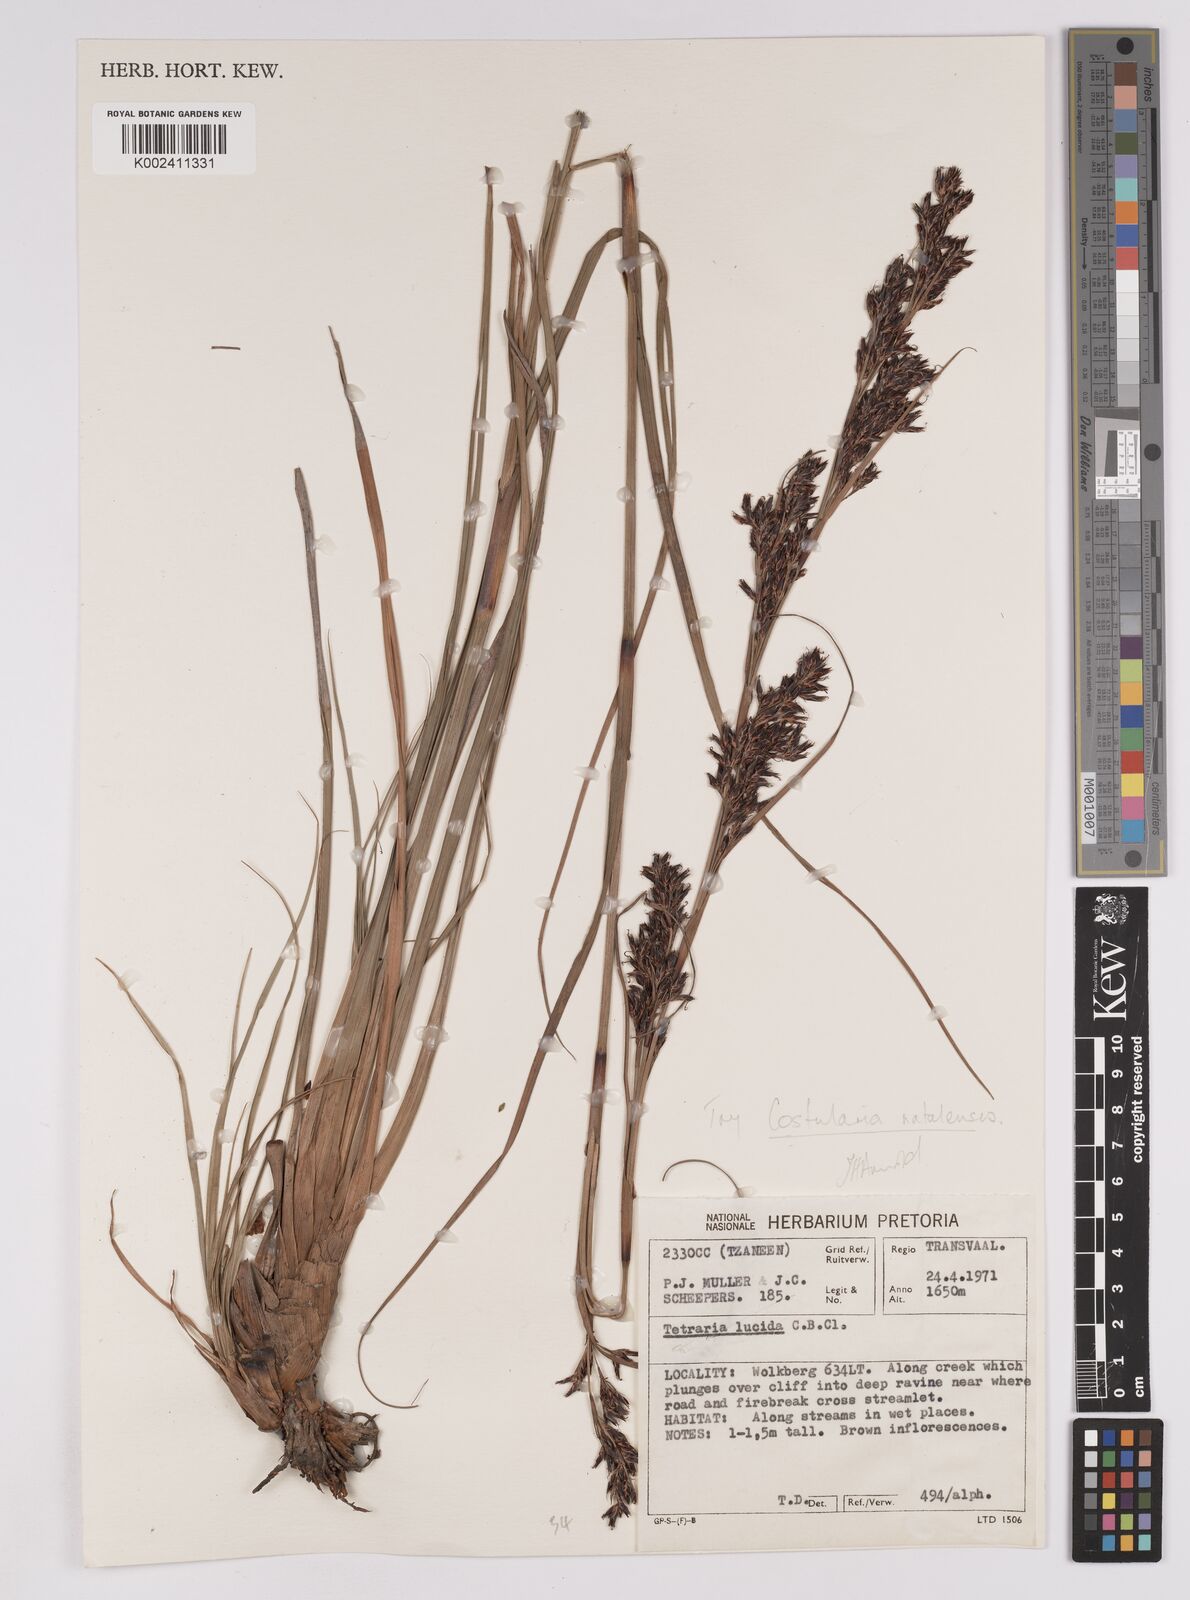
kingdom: Plantae
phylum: Tracheophyta
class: Liliopsida
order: Poales
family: Cyperaceae
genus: Costularia
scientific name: Costularia natalensis
